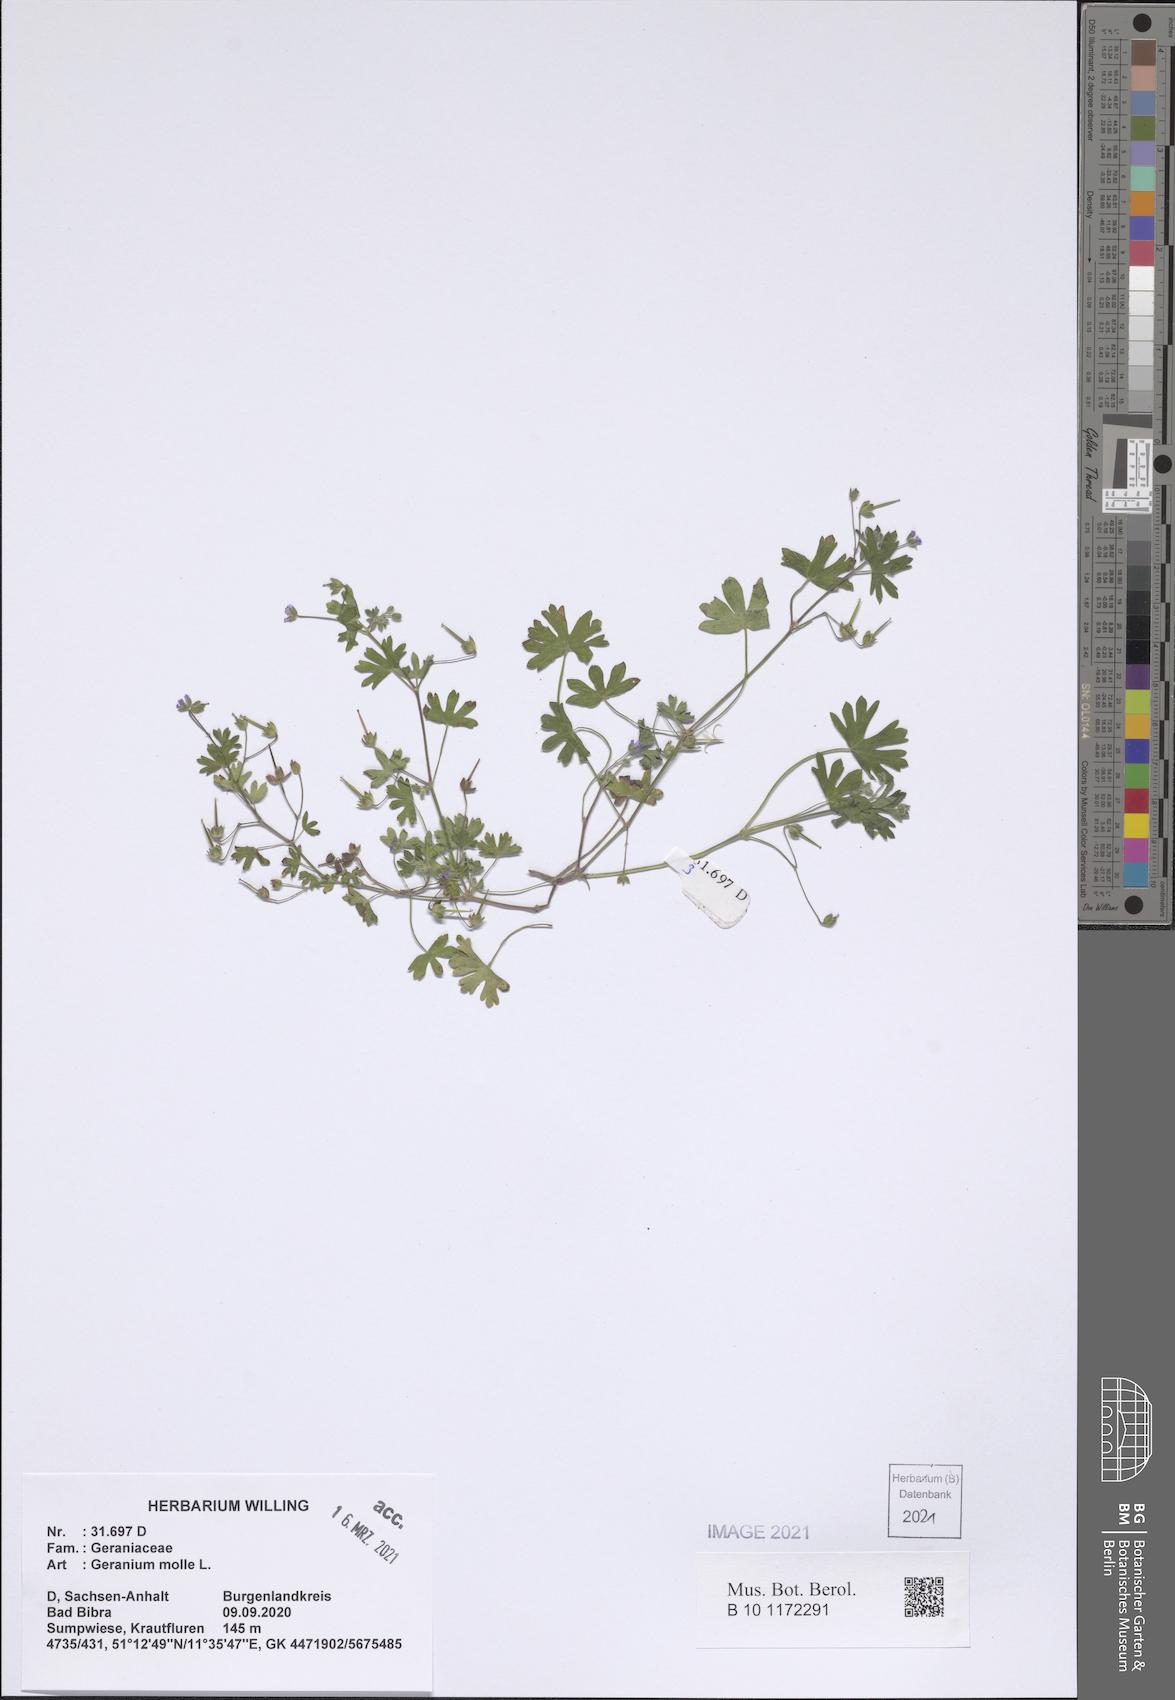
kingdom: Plantae
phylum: Tracheophyta
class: Magnoliopsida
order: Geraniales
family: Geraniaceae
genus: Geranium
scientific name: Geranium molle
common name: Dove's-foot crane's-bill
